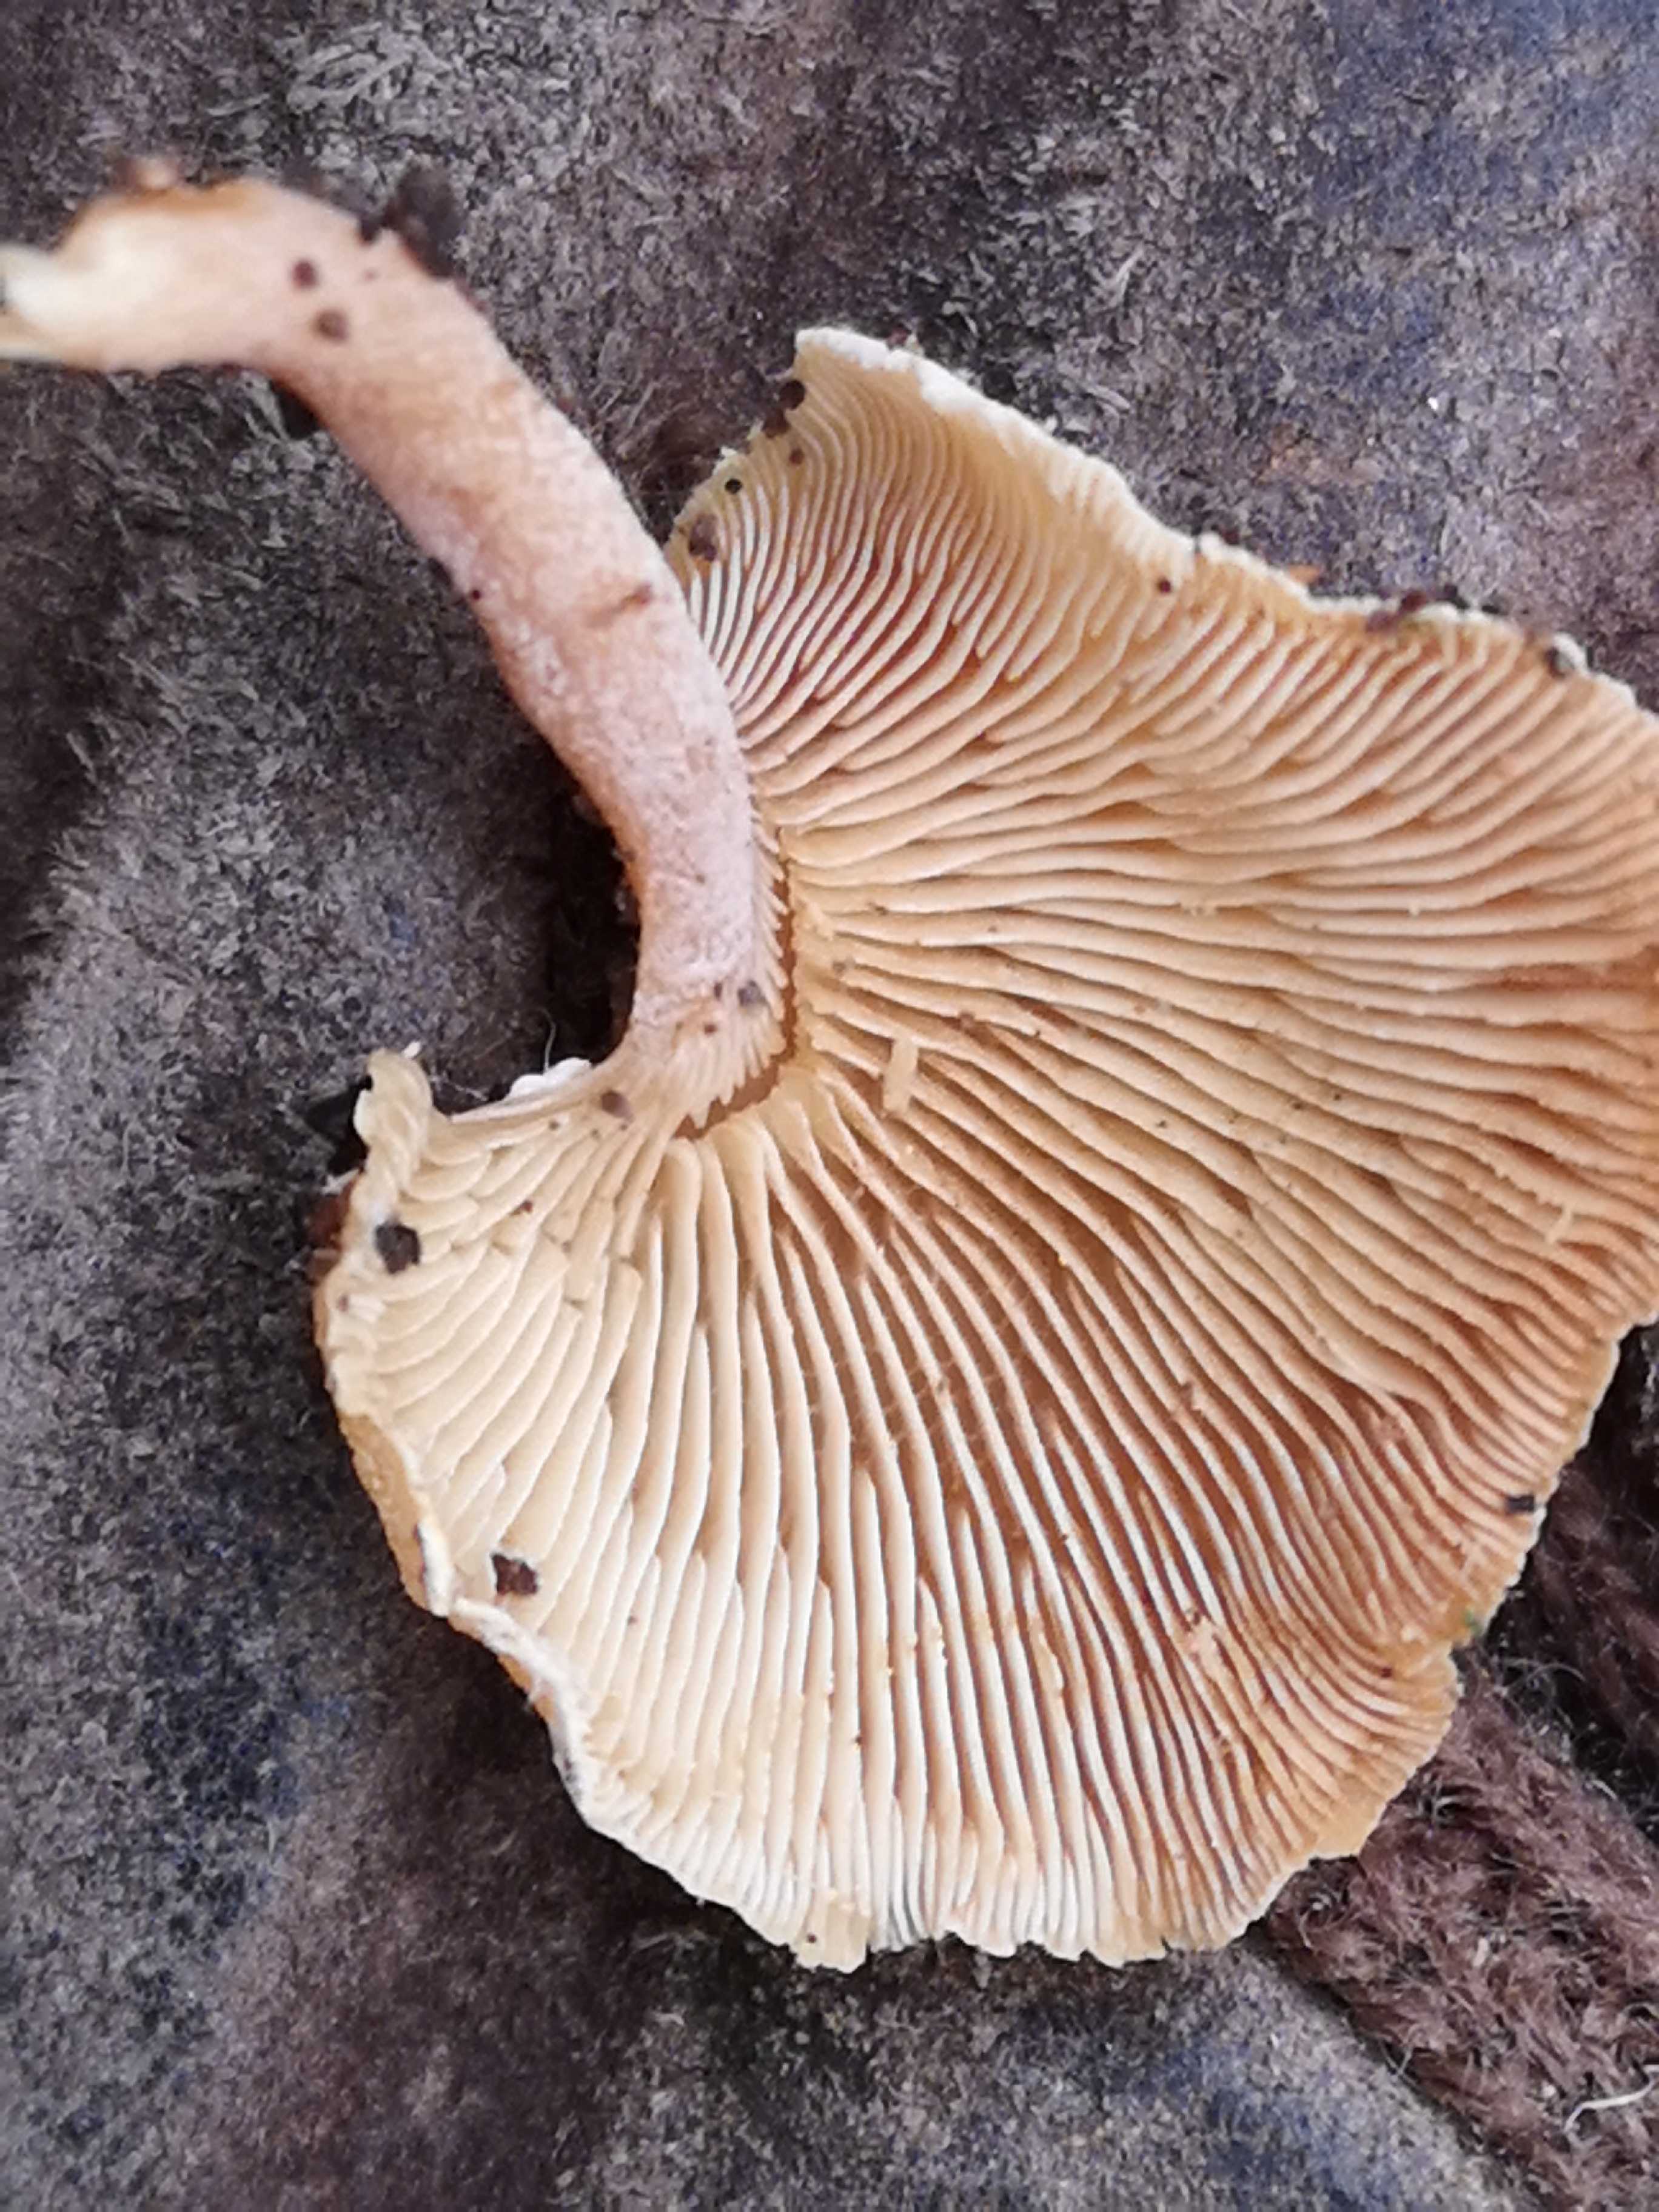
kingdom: Fungi
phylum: Basidiomycota
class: Agaricomycetes
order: Agaricales
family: Mycenaceae
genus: Panellus
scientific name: Panellus stipticus
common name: kliddet epaulethat
